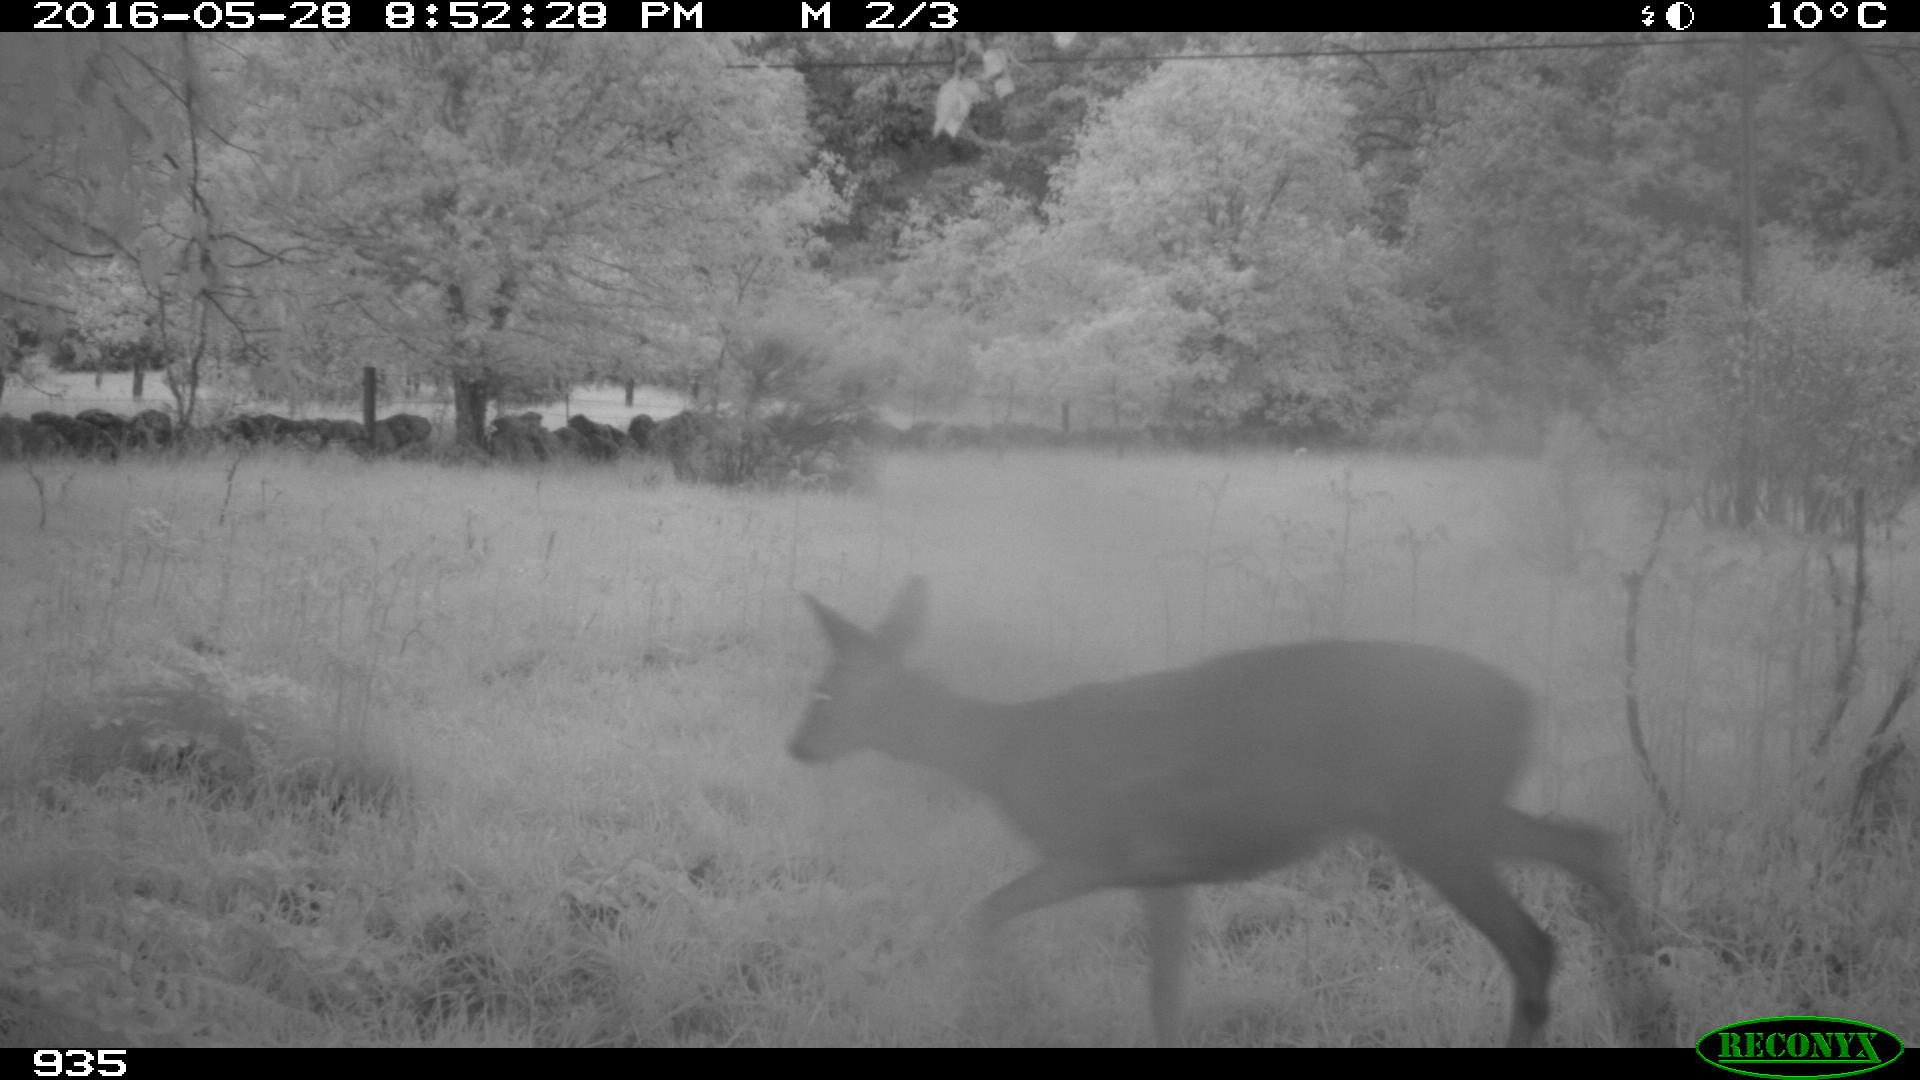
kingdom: Animalia
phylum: Chordata
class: Mammalia
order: Artiodactyla
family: Cervidae
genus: Capreolus
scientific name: Capreolus capreolus
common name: Western roe deer
